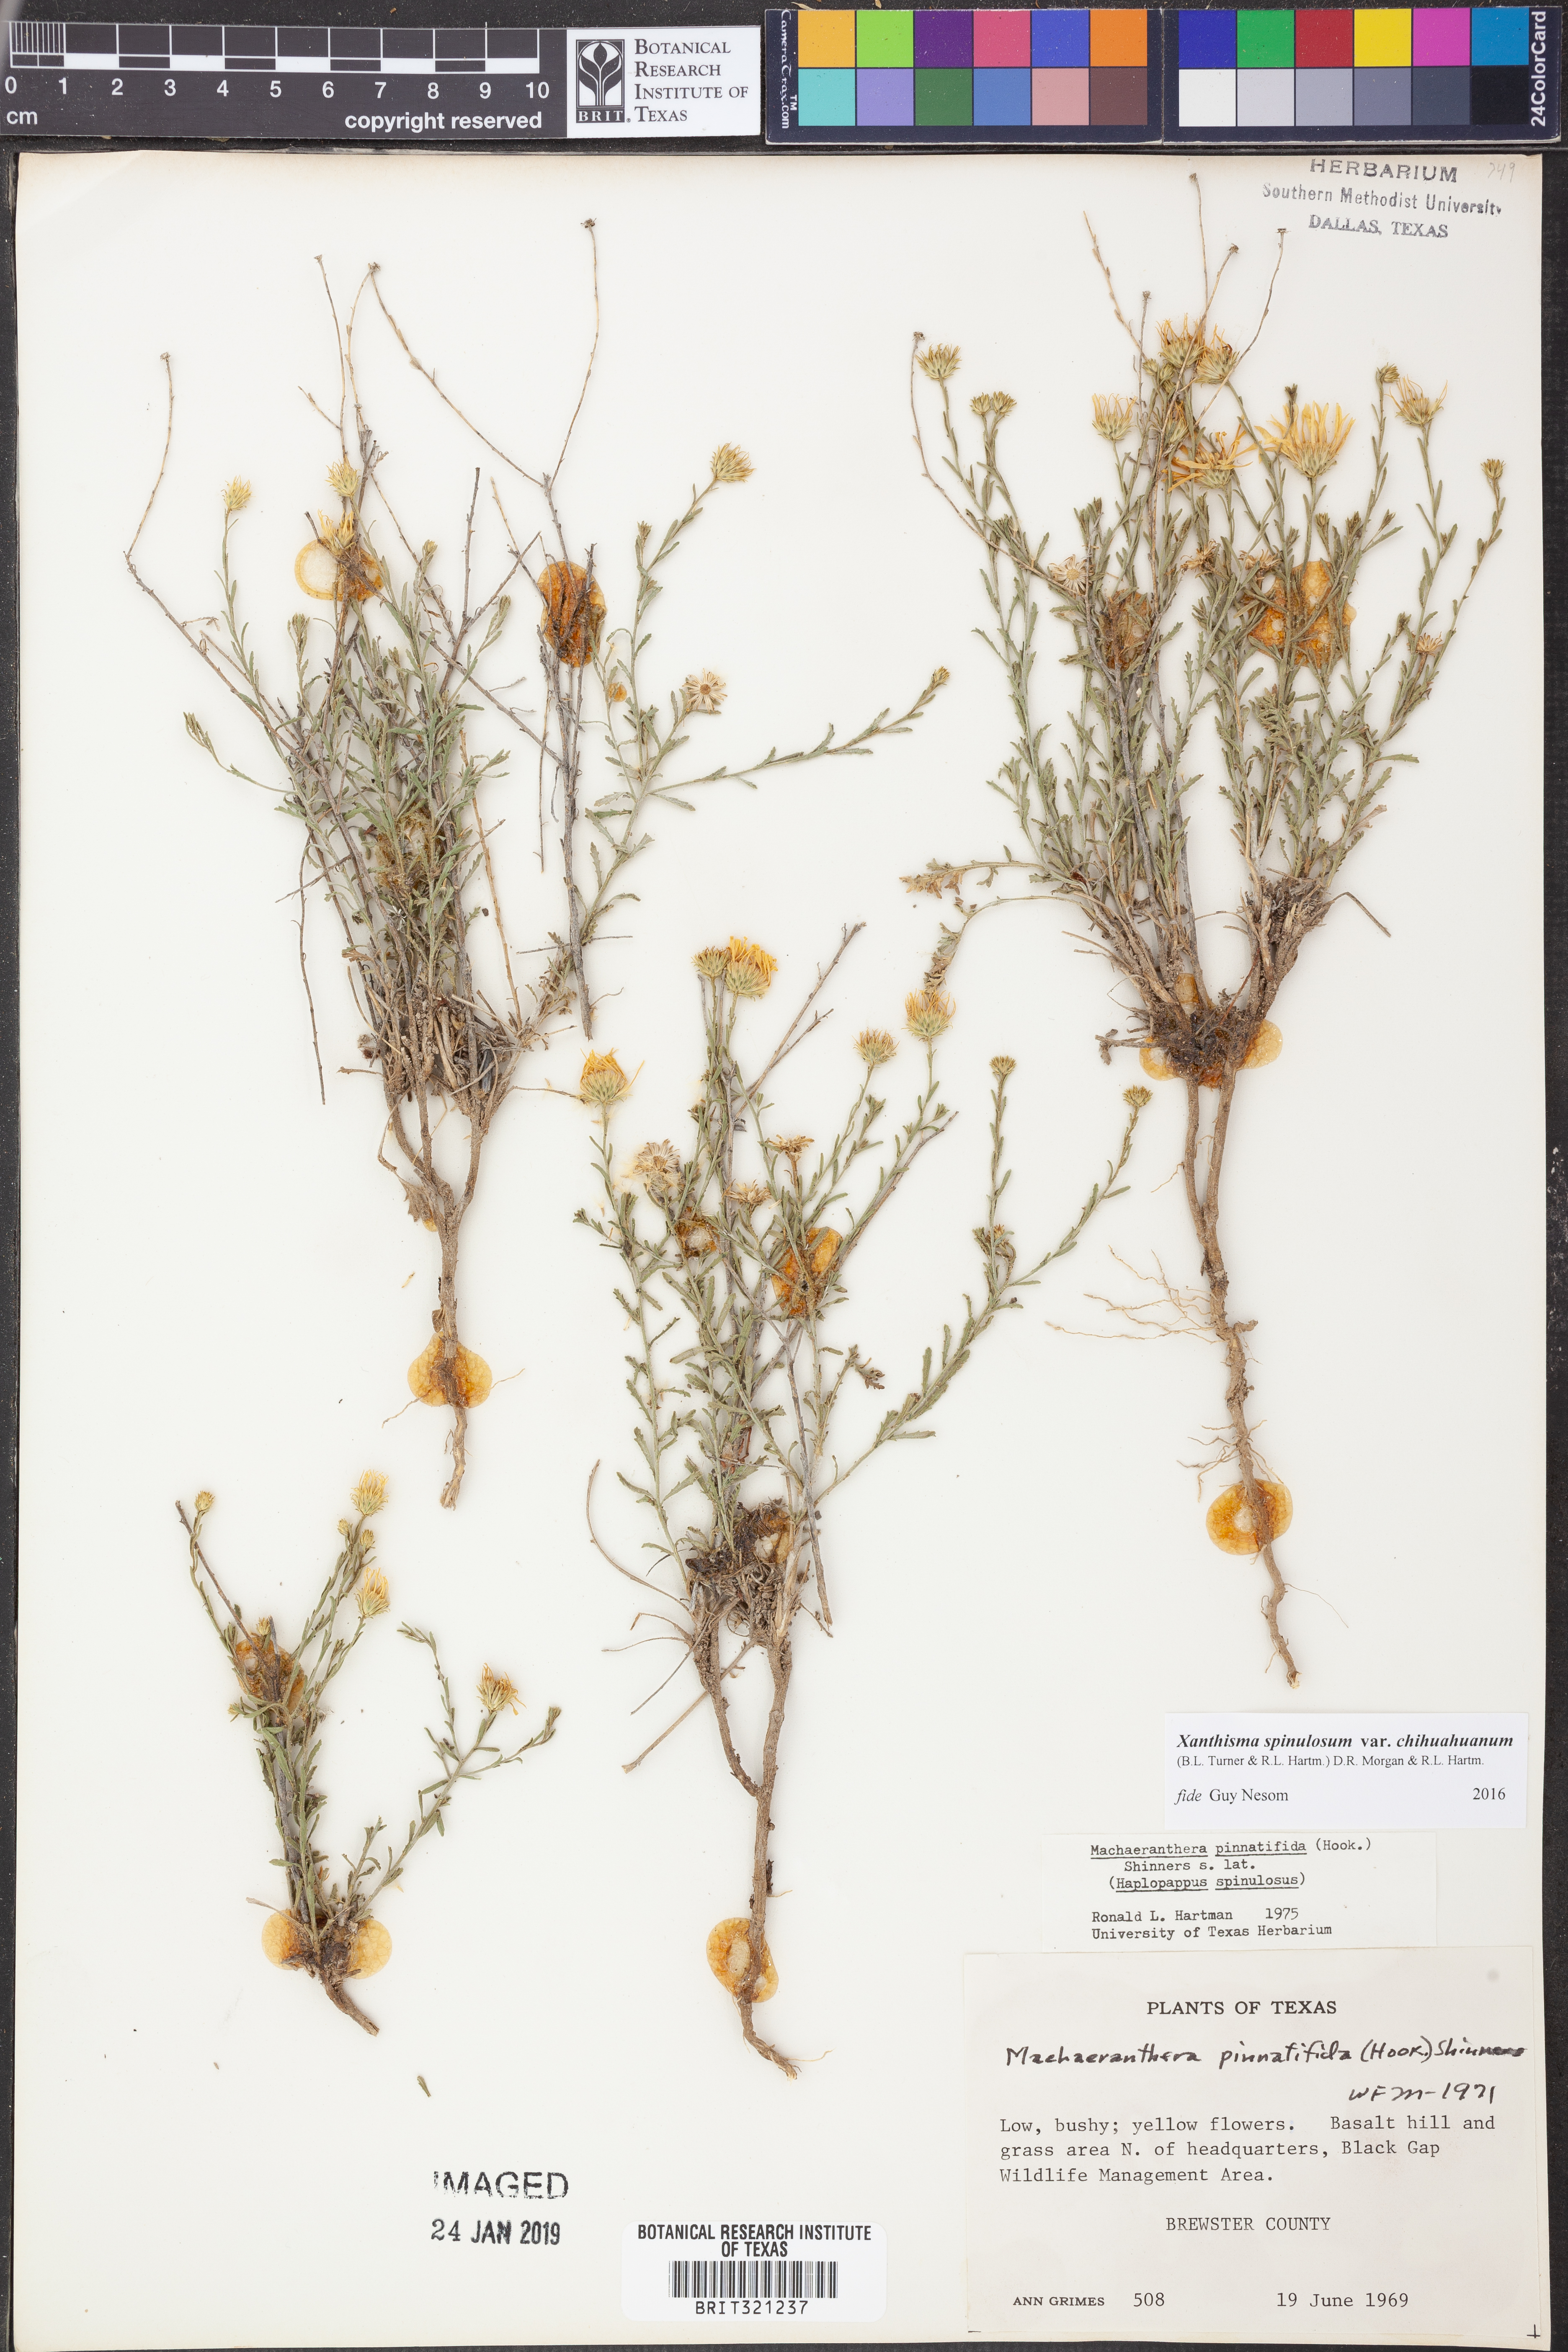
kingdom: Plantae
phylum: Tracheophyta
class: Magnoliopsida
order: Asterales
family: Asteraceae
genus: Xanthisma
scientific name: Xanthisma spinulosum
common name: Spiny goldenweed
